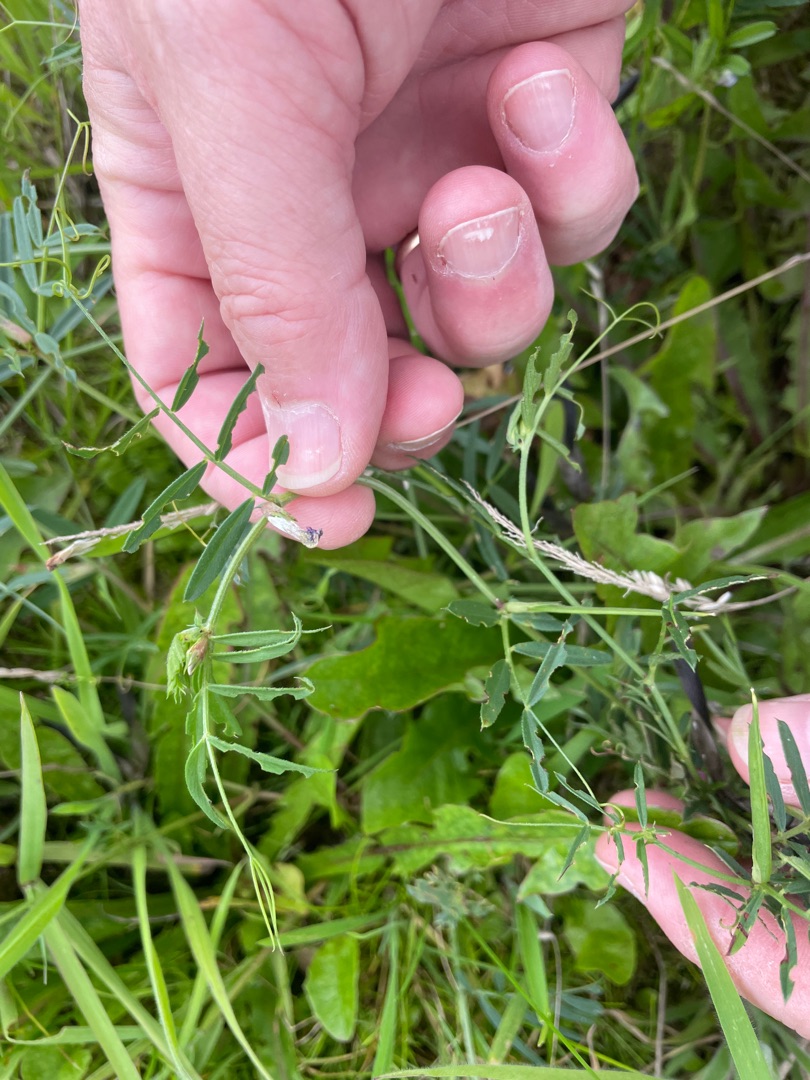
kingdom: Plantae
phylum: Tracheophyta
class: Magnoliopsida
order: Fabales
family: Fabaceae
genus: Vicia
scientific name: Vicia sativa
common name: Foder-vikke
